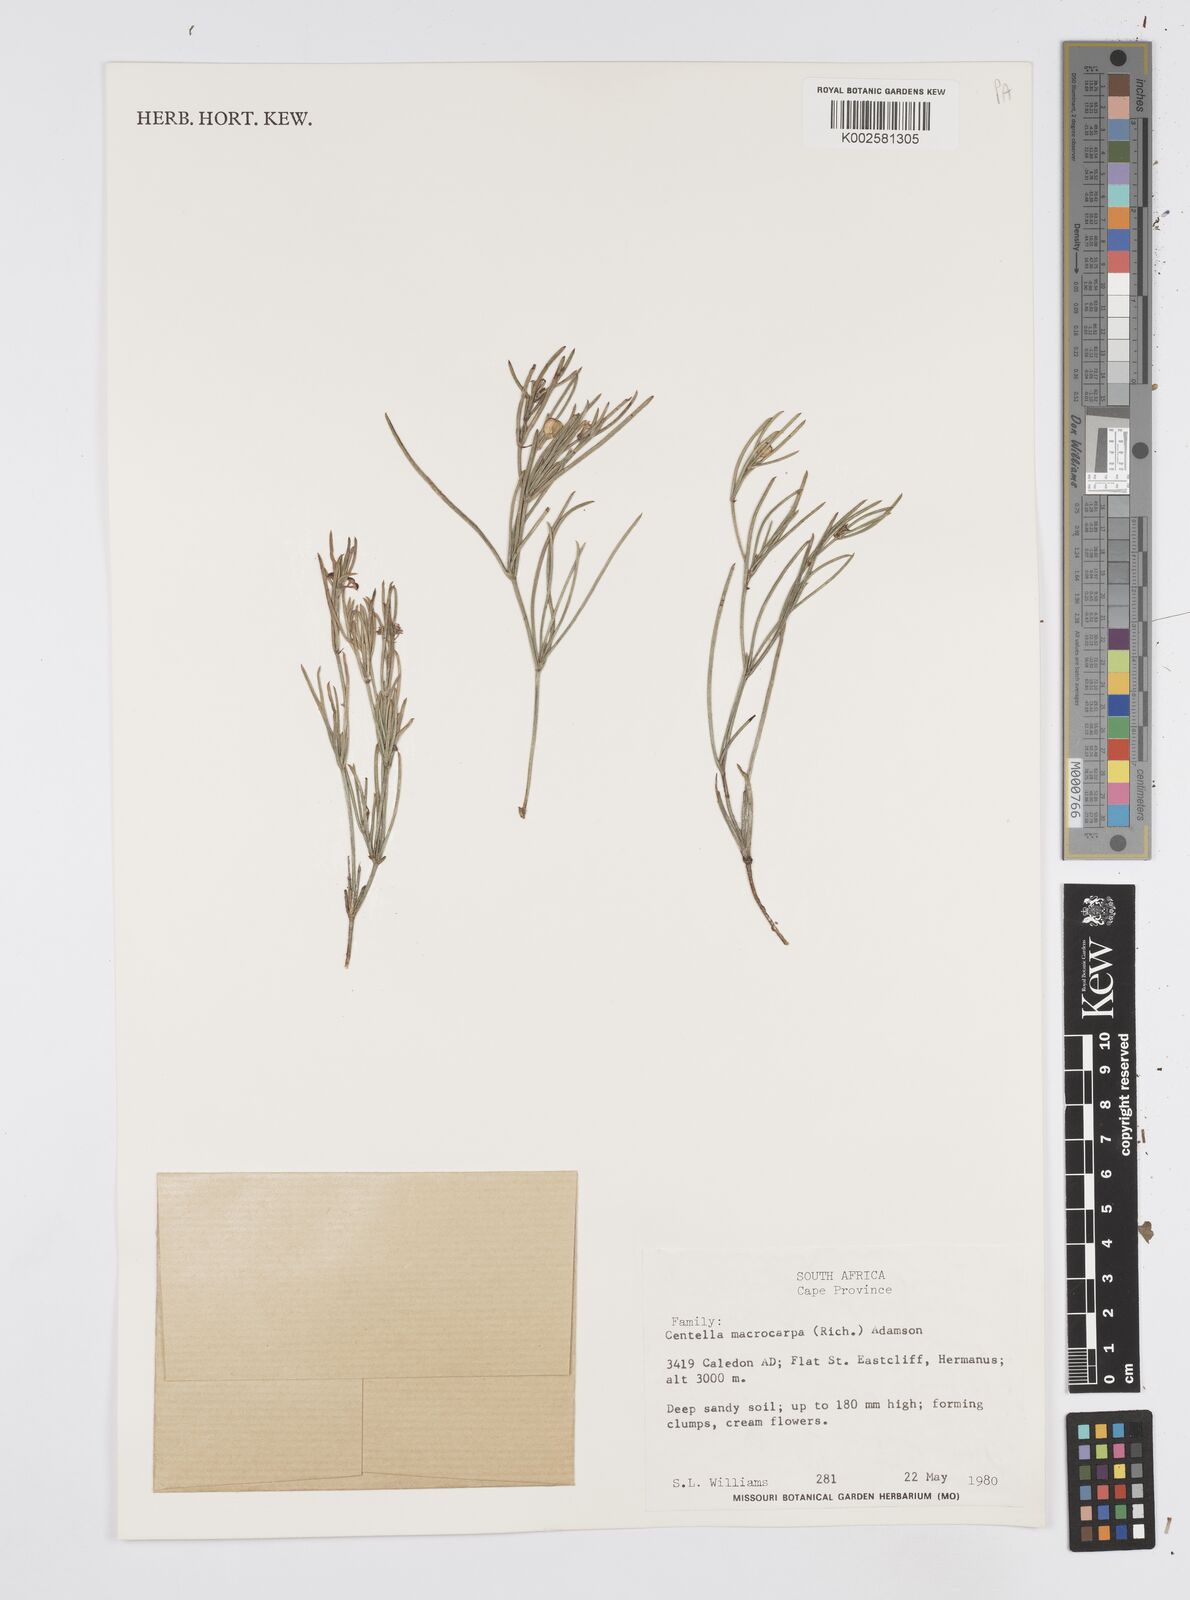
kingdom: Plantae
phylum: Tracheophyta
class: Magnoliopsida
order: Apiales
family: Apiaceae
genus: Centella
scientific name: Centella macrocarpa
